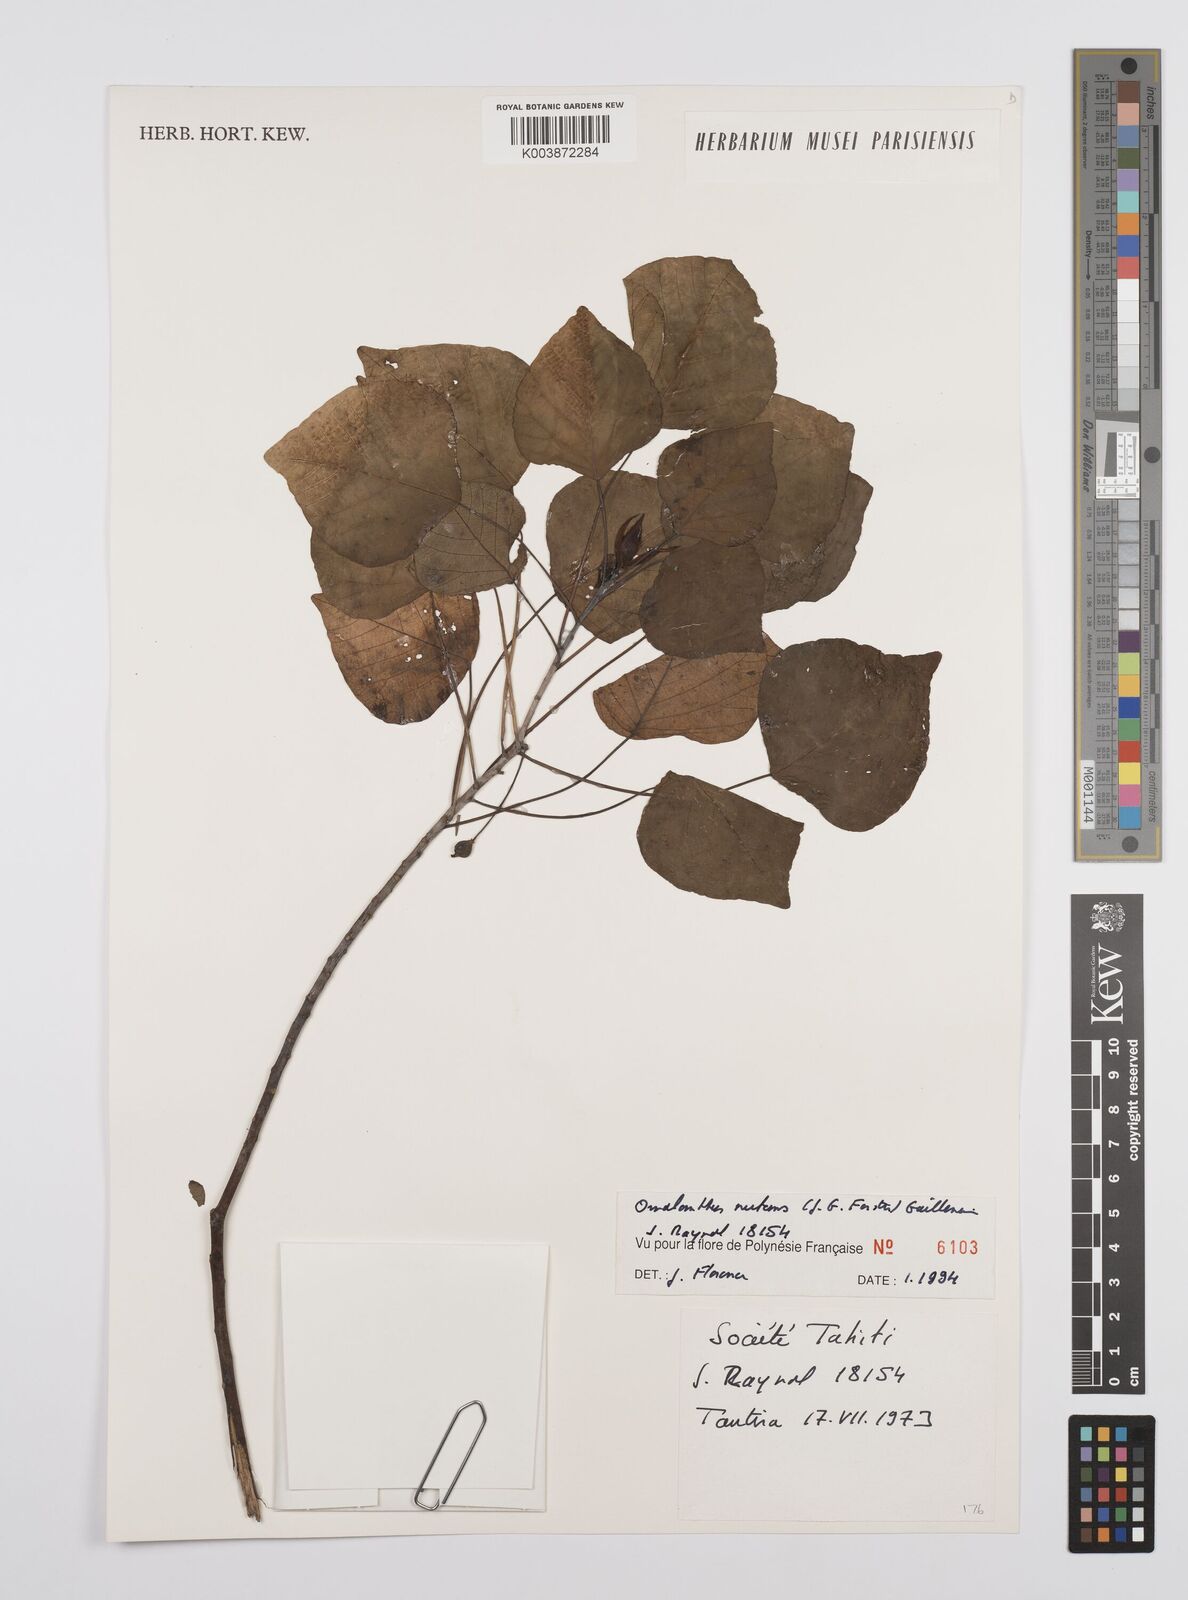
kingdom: Plantae
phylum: Tracheophyta
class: Magnoliopsida
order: Malpighiales
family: Euphorbiaceae
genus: Homalanthus
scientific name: Homalanthus nutans
